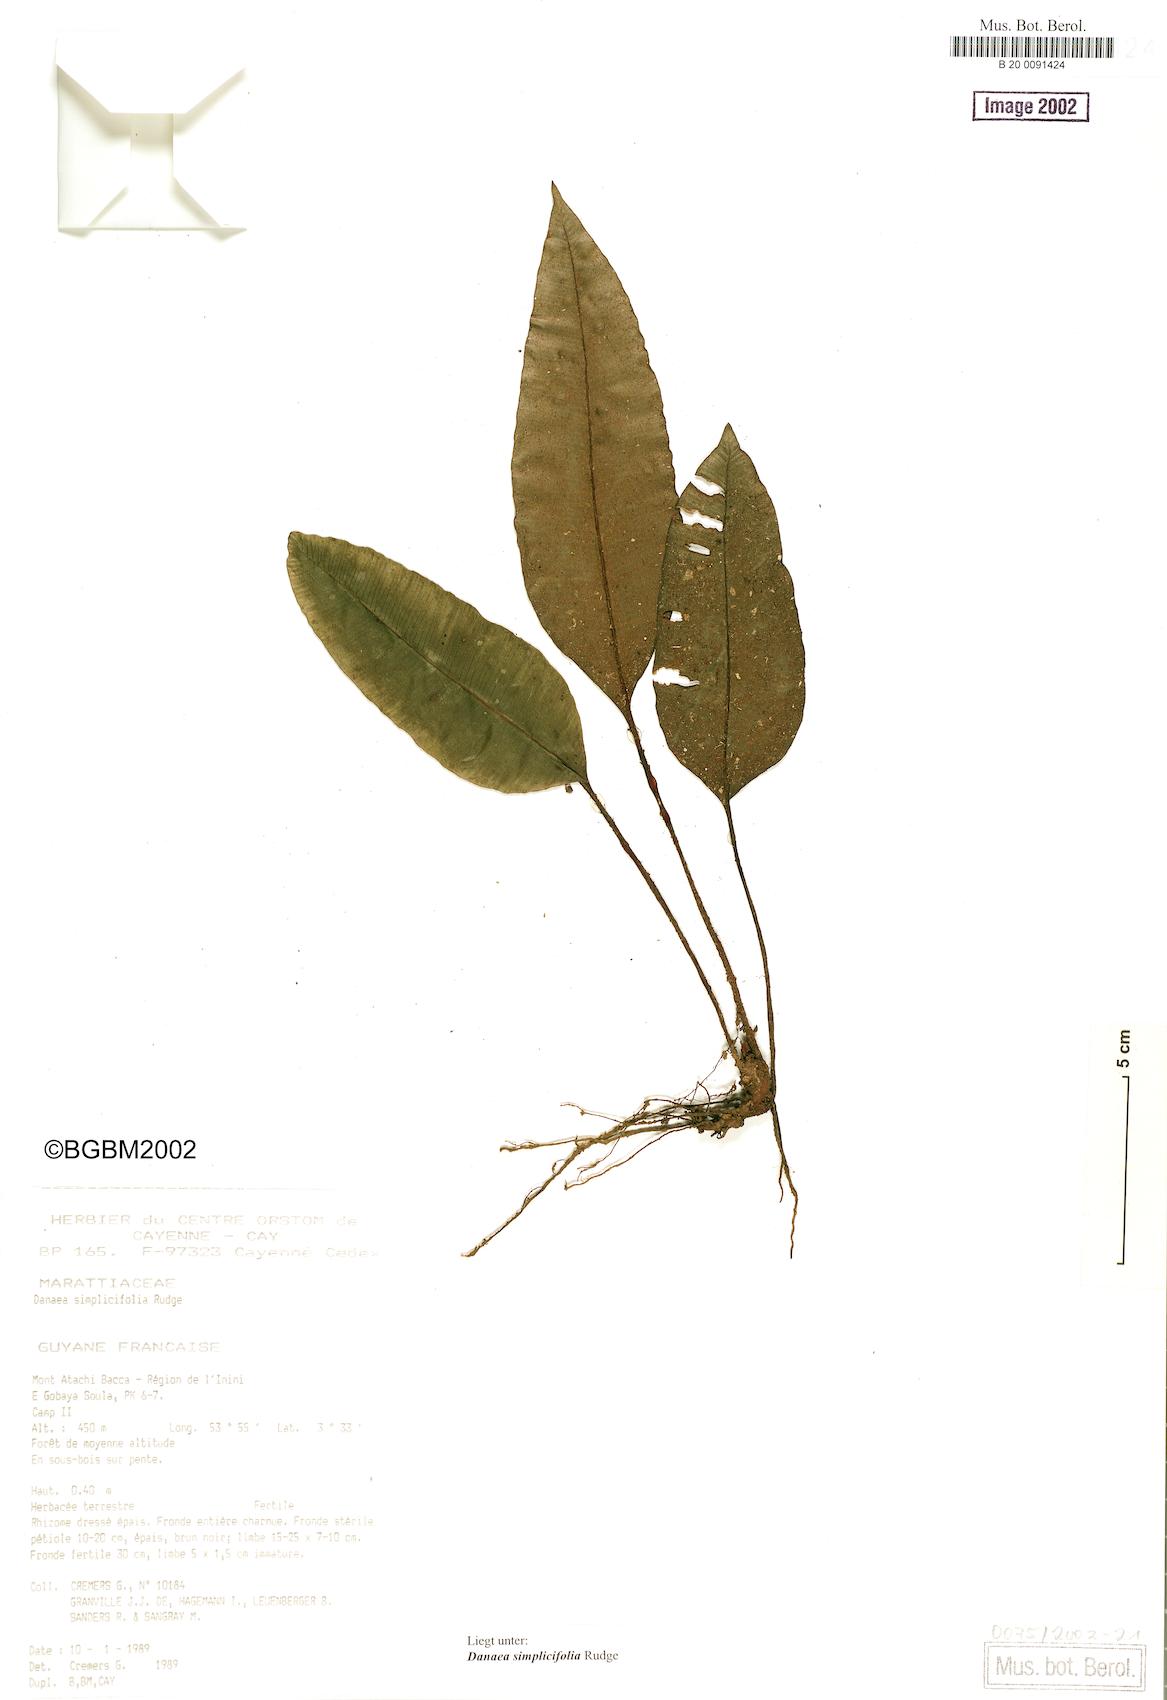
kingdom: Plantae
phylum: Tracheophyta
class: Polypodiopsida
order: Marattiales
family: Marattiaceae
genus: Danaea
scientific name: Danaea simplicifolia
